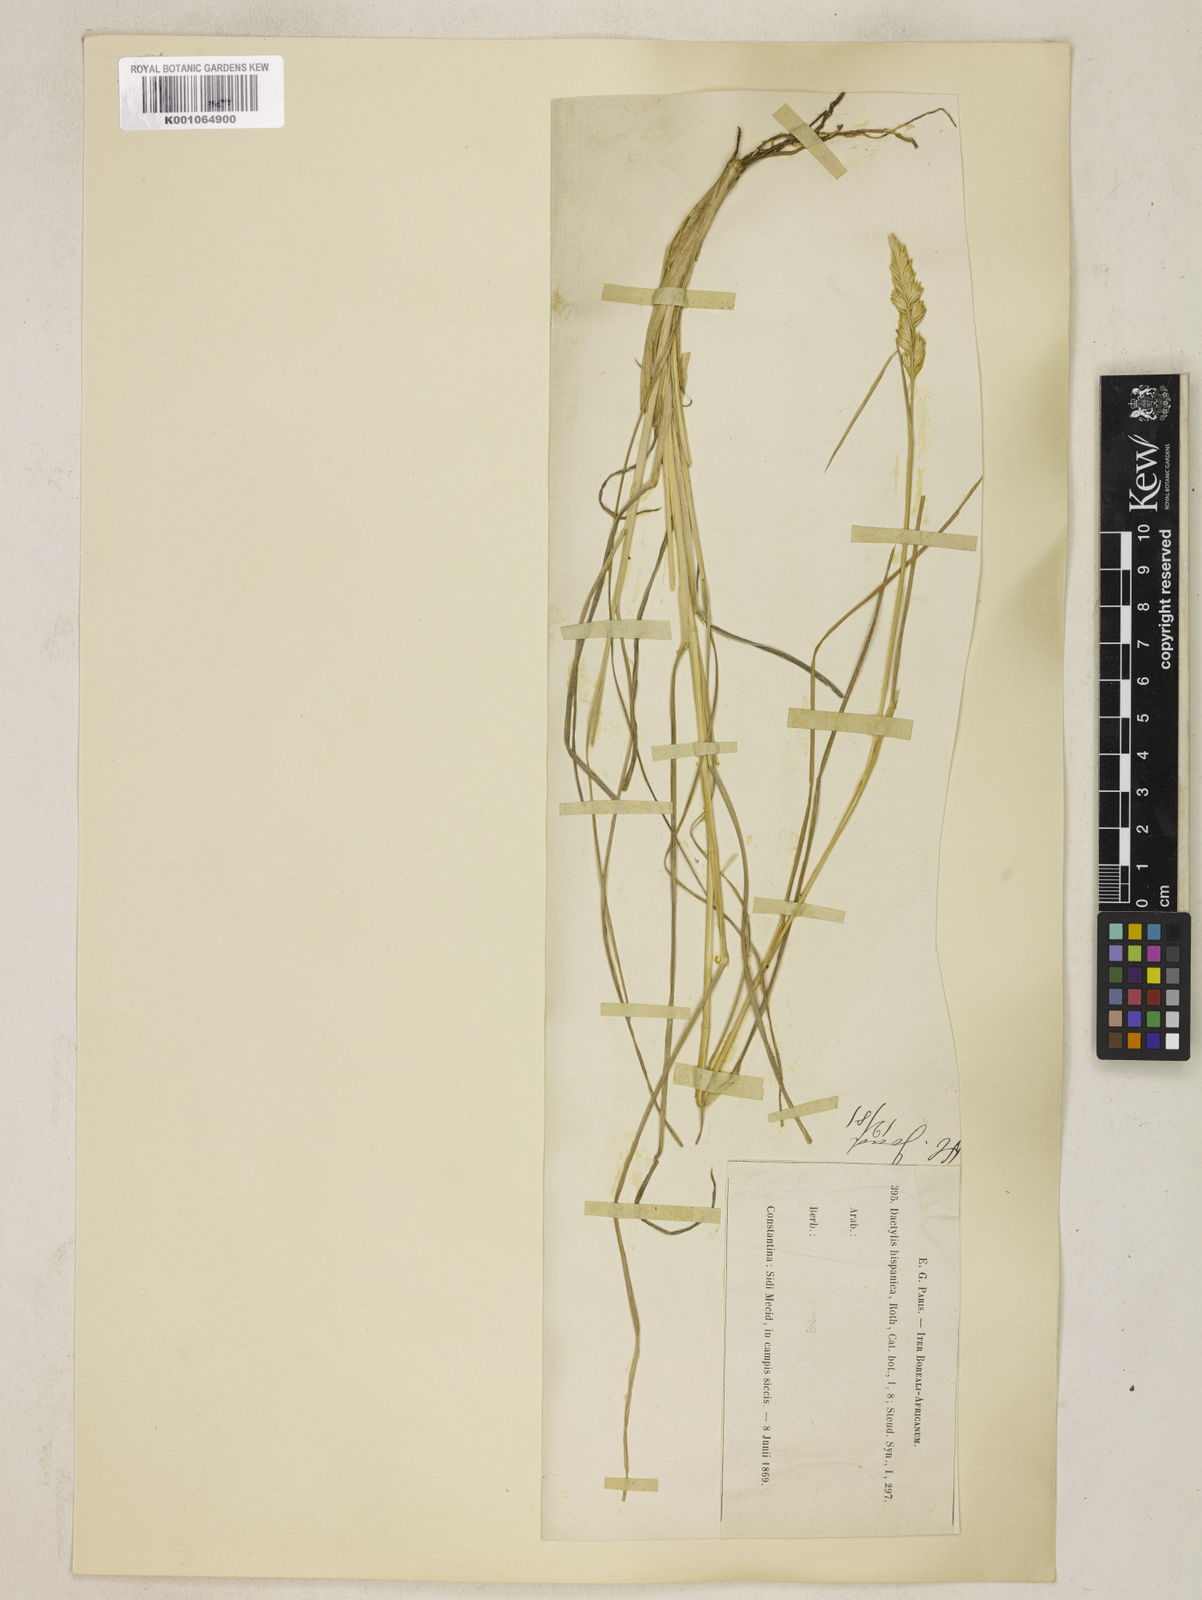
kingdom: Plantae
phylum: Tracheophyta
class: Liliopsida
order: Poales
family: Poaceae
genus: Dactylis
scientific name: Dactylis glomerata
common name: Orchardgrass
